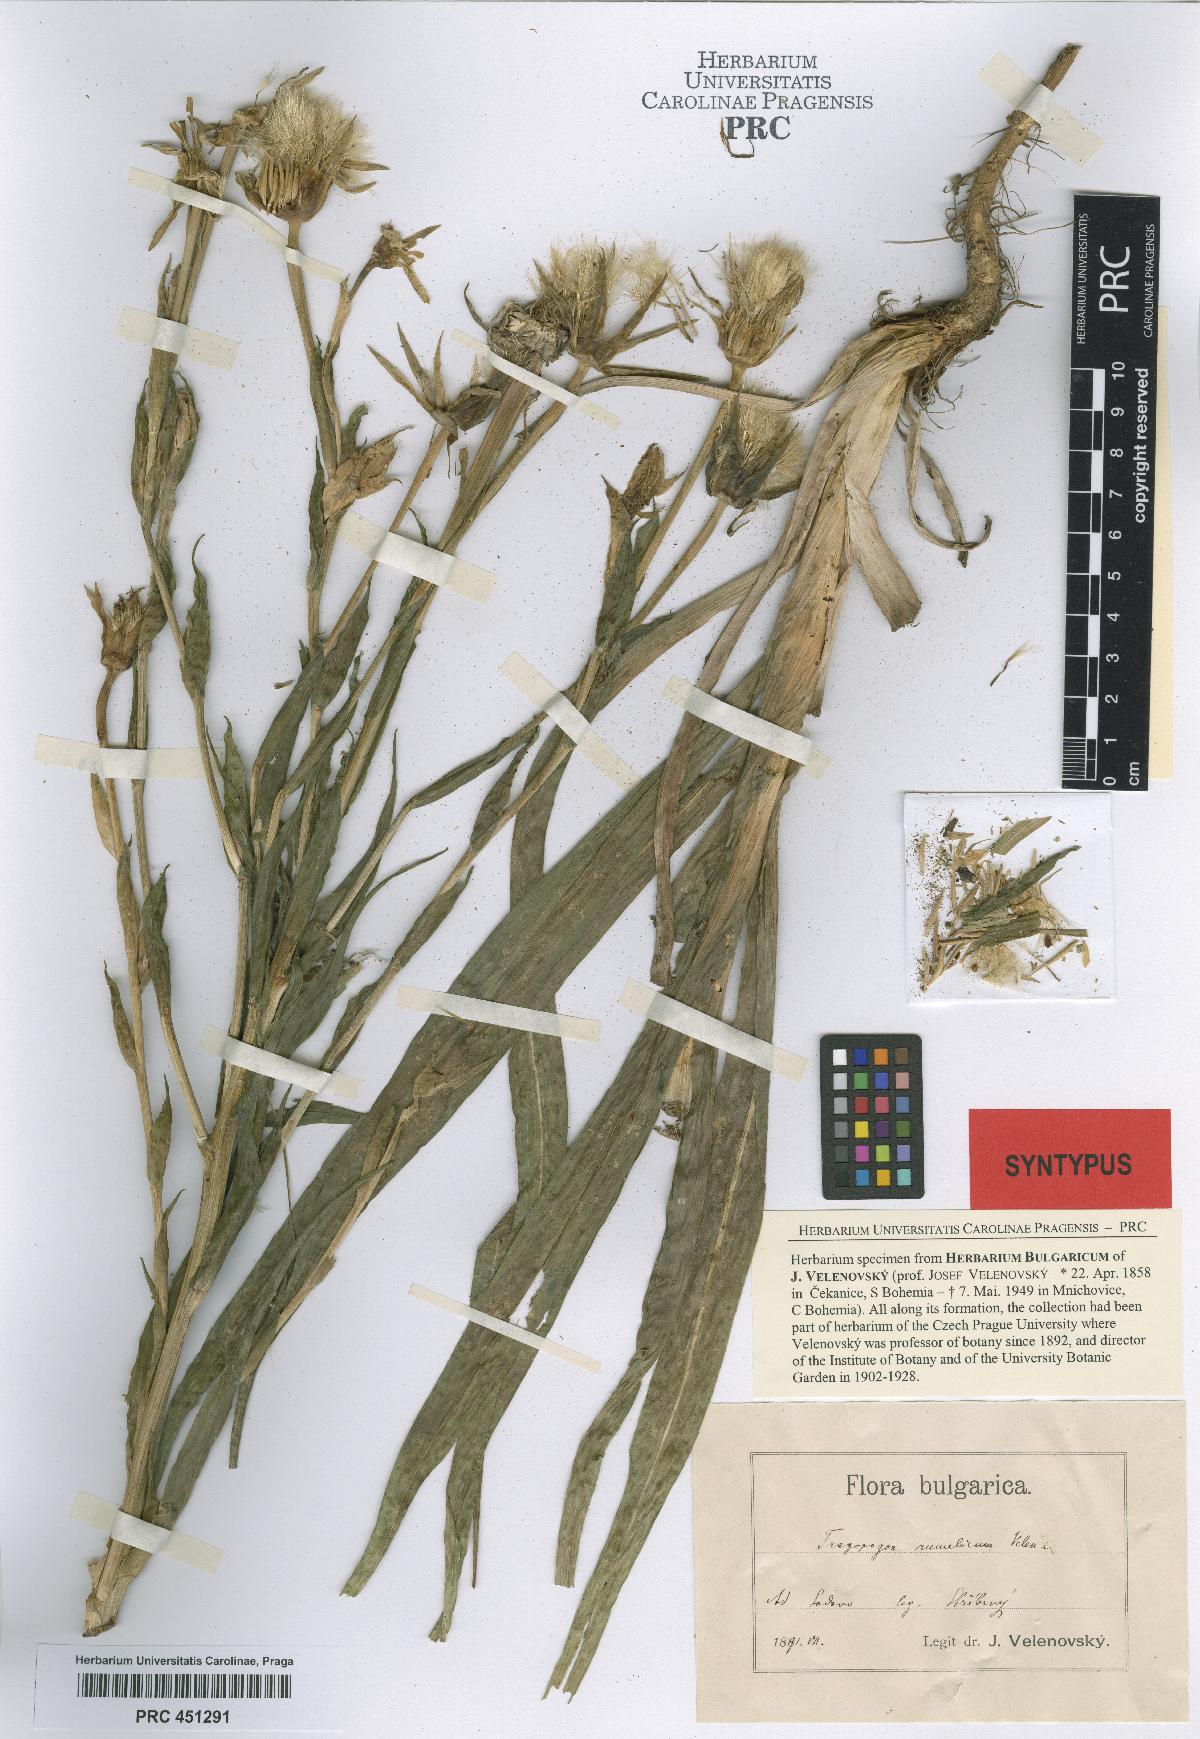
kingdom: Plantae
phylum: Tracheophyta
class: Magnoliopsida
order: Asterales
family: Asteraceae
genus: Tragopogon
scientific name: Tragopogon orientalis
